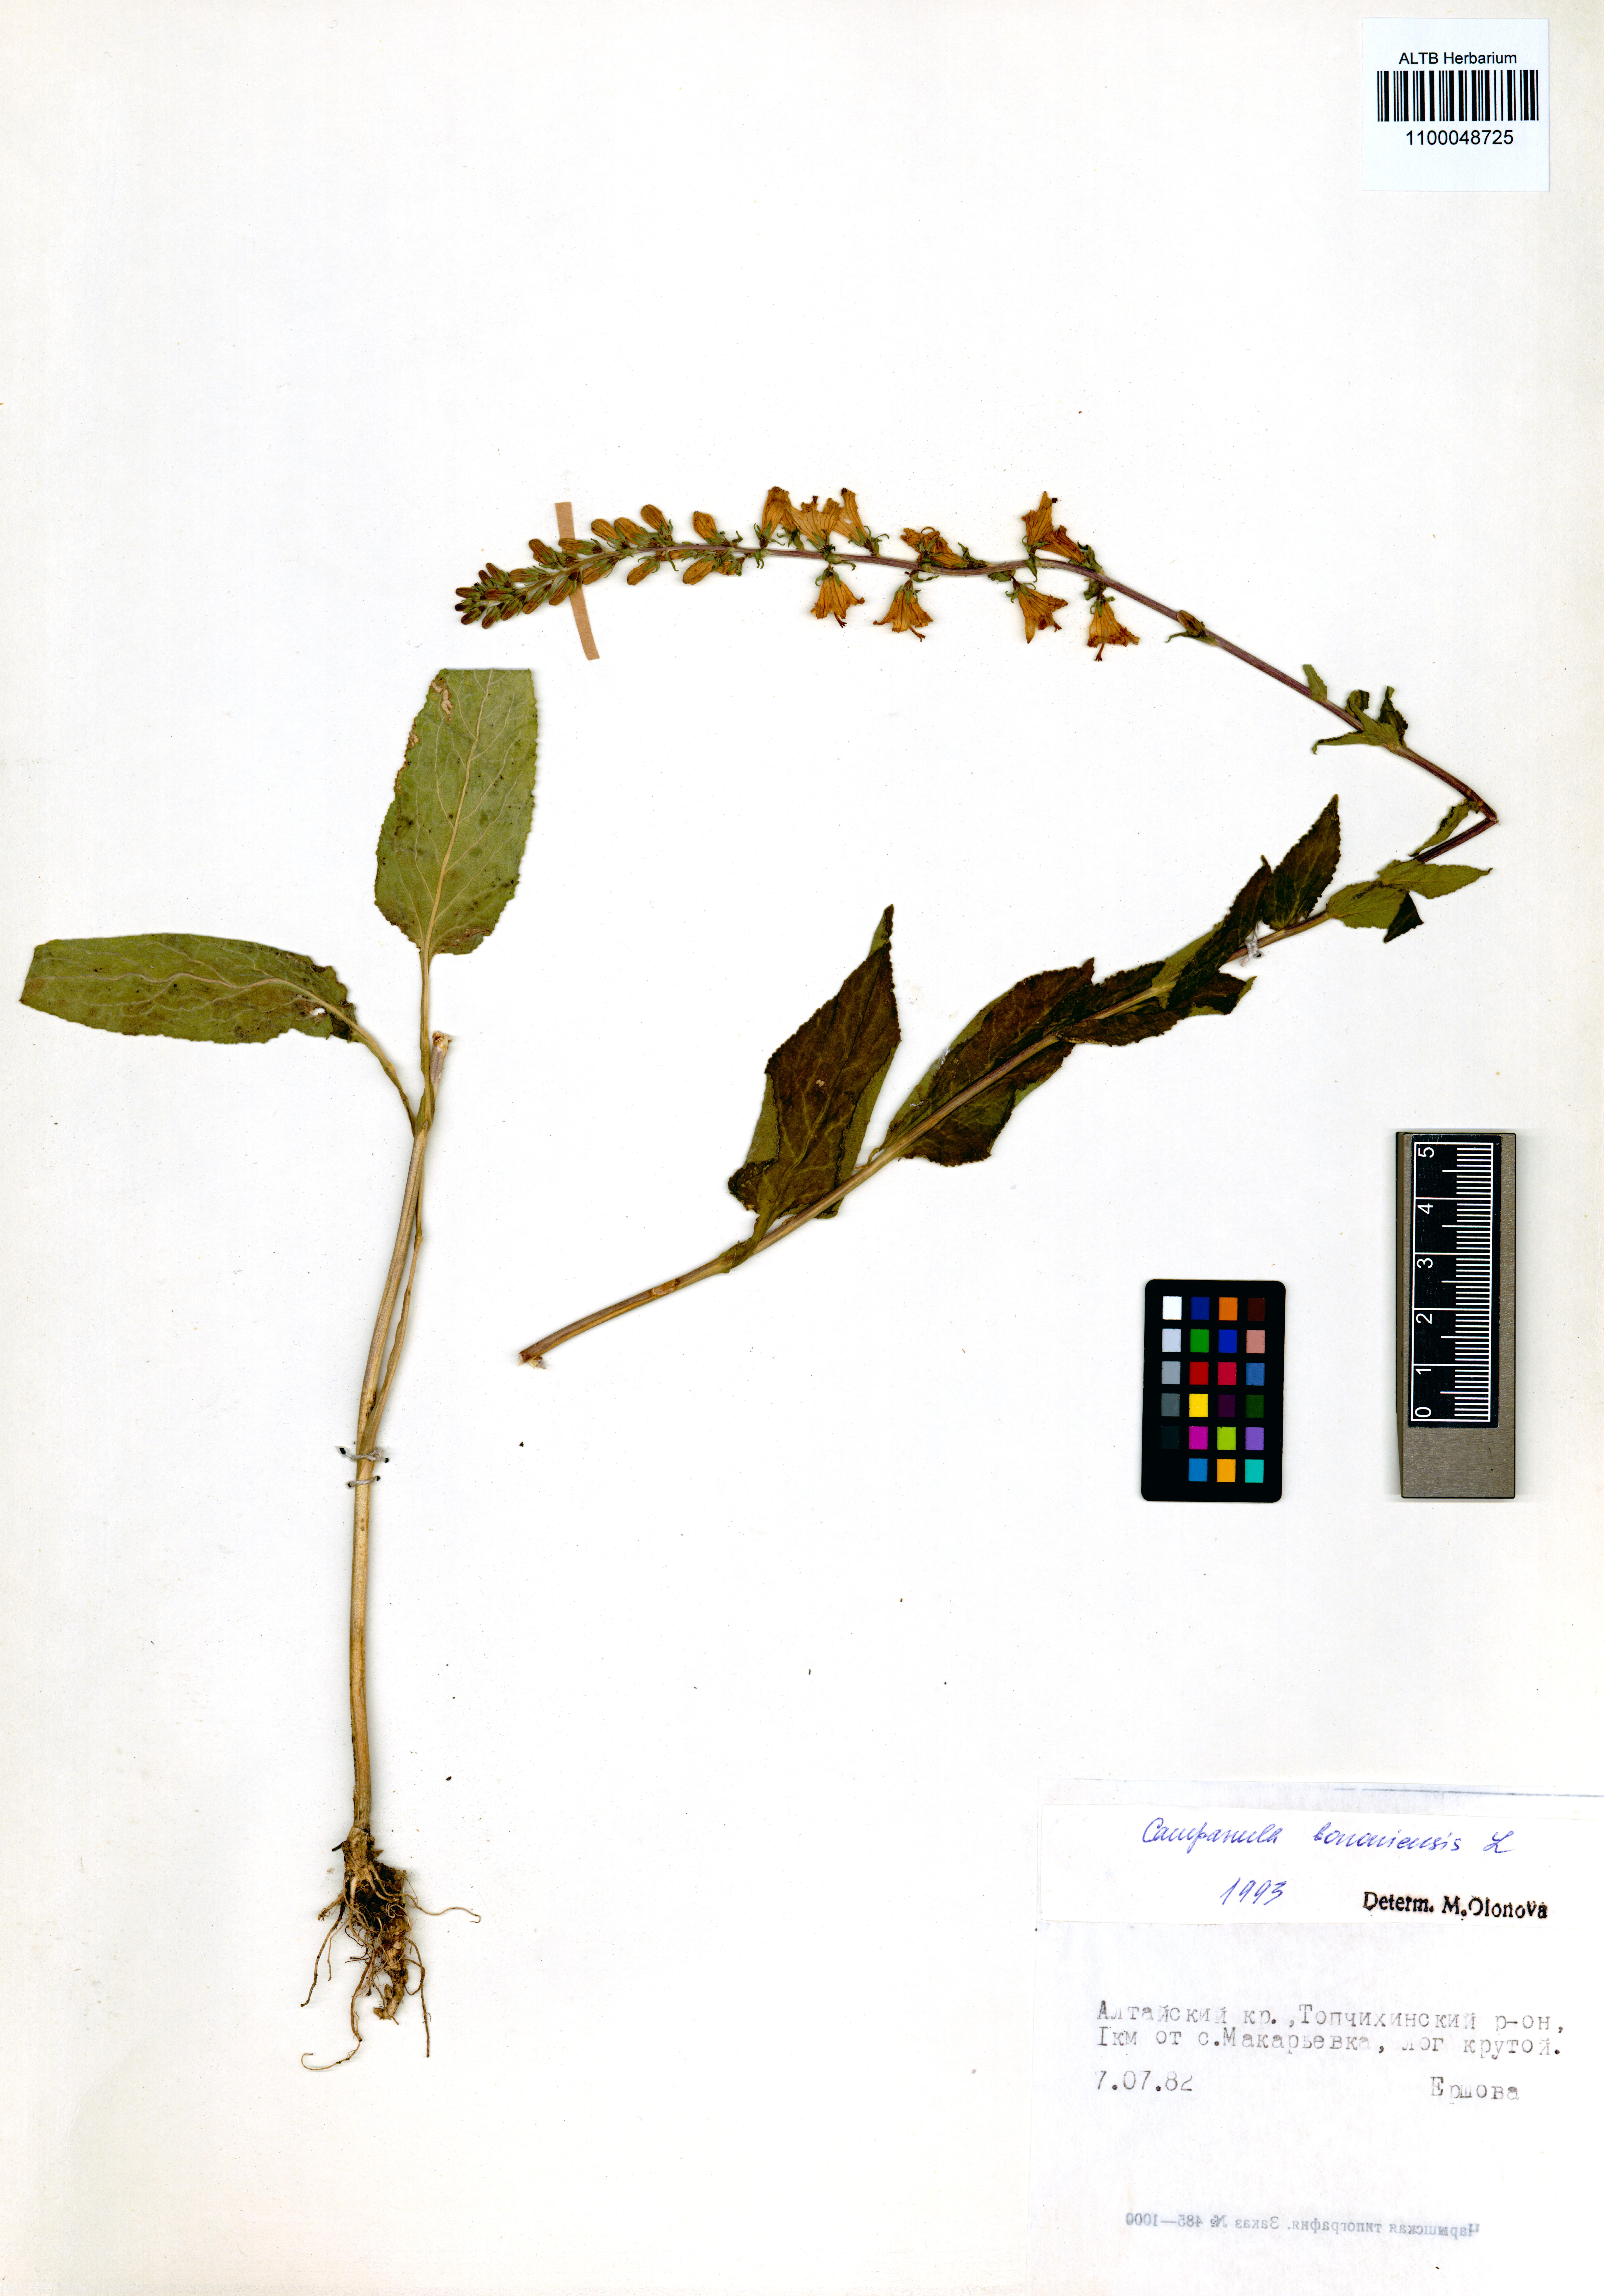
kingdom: Plantae
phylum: Tracheophyta
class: Magnoliopsida
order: Asterales
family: Campanulaceae
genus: Campanula
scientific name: Campanula bononiensis
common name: Pale bellflower
